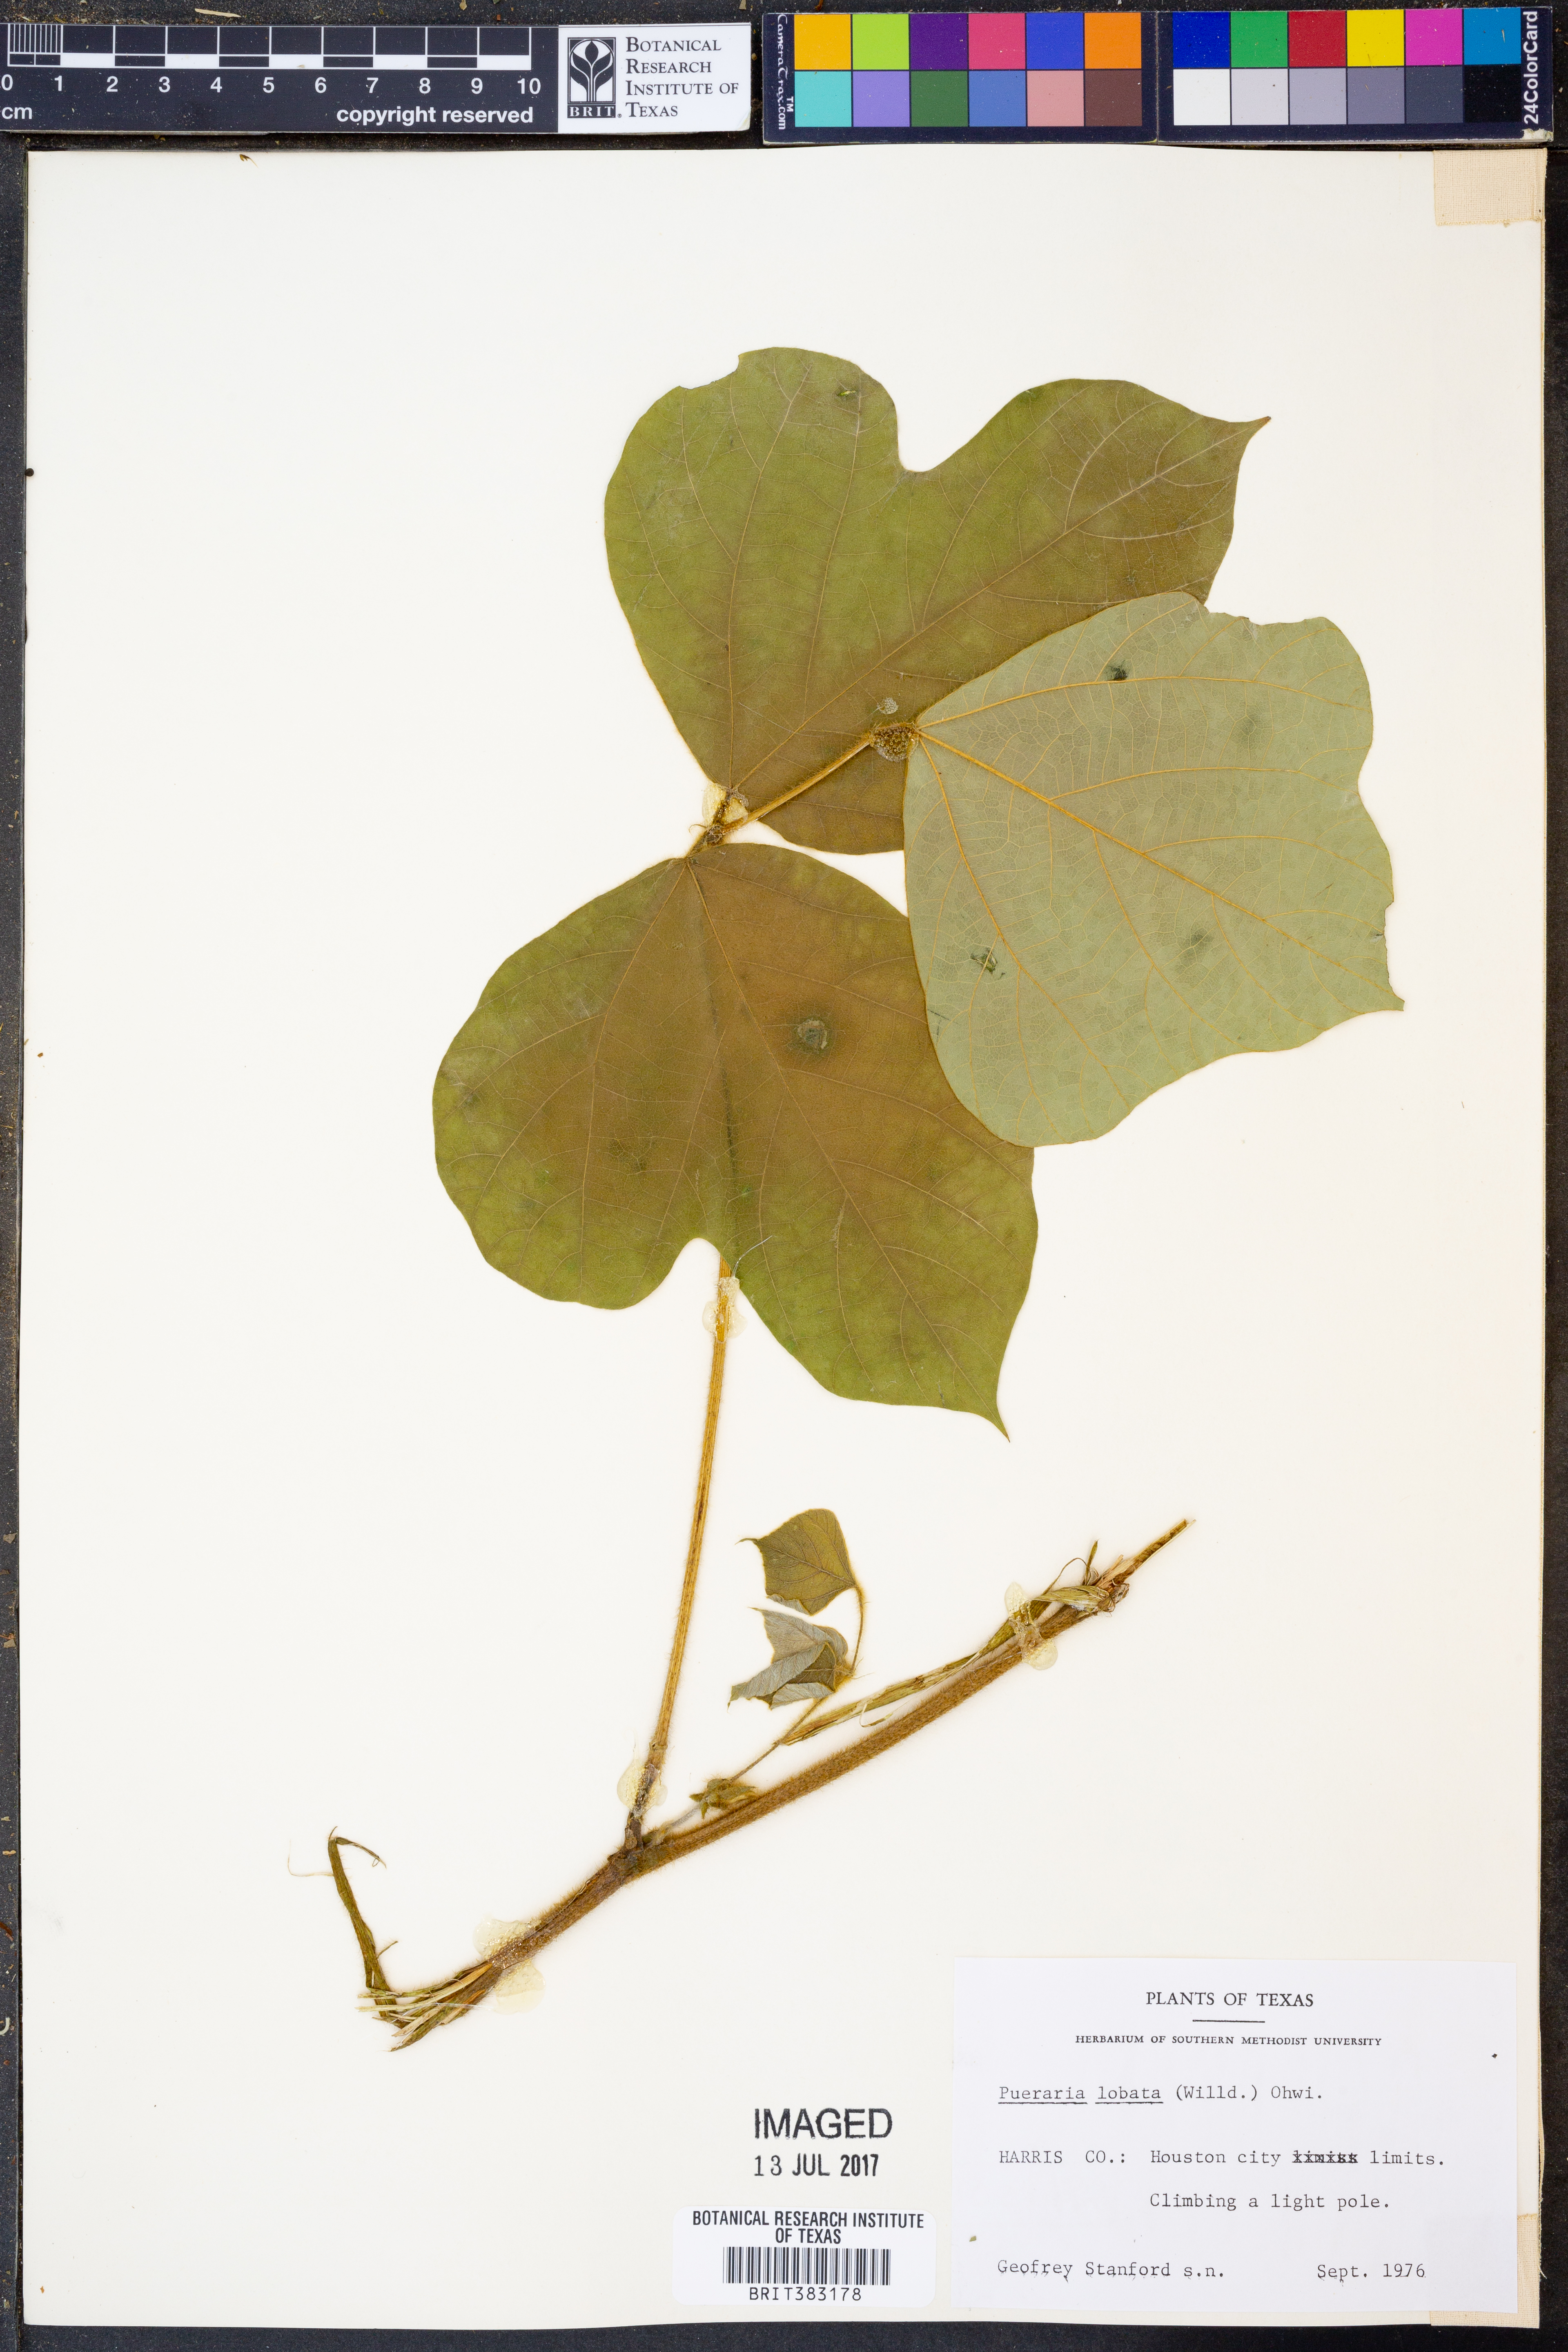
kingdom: Plantae
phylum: Tracheophyta
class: Magnoliopsida
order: Fabales
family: Fabaceae
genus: Pueraria
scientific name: Pueraria montana
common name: Kudzu
